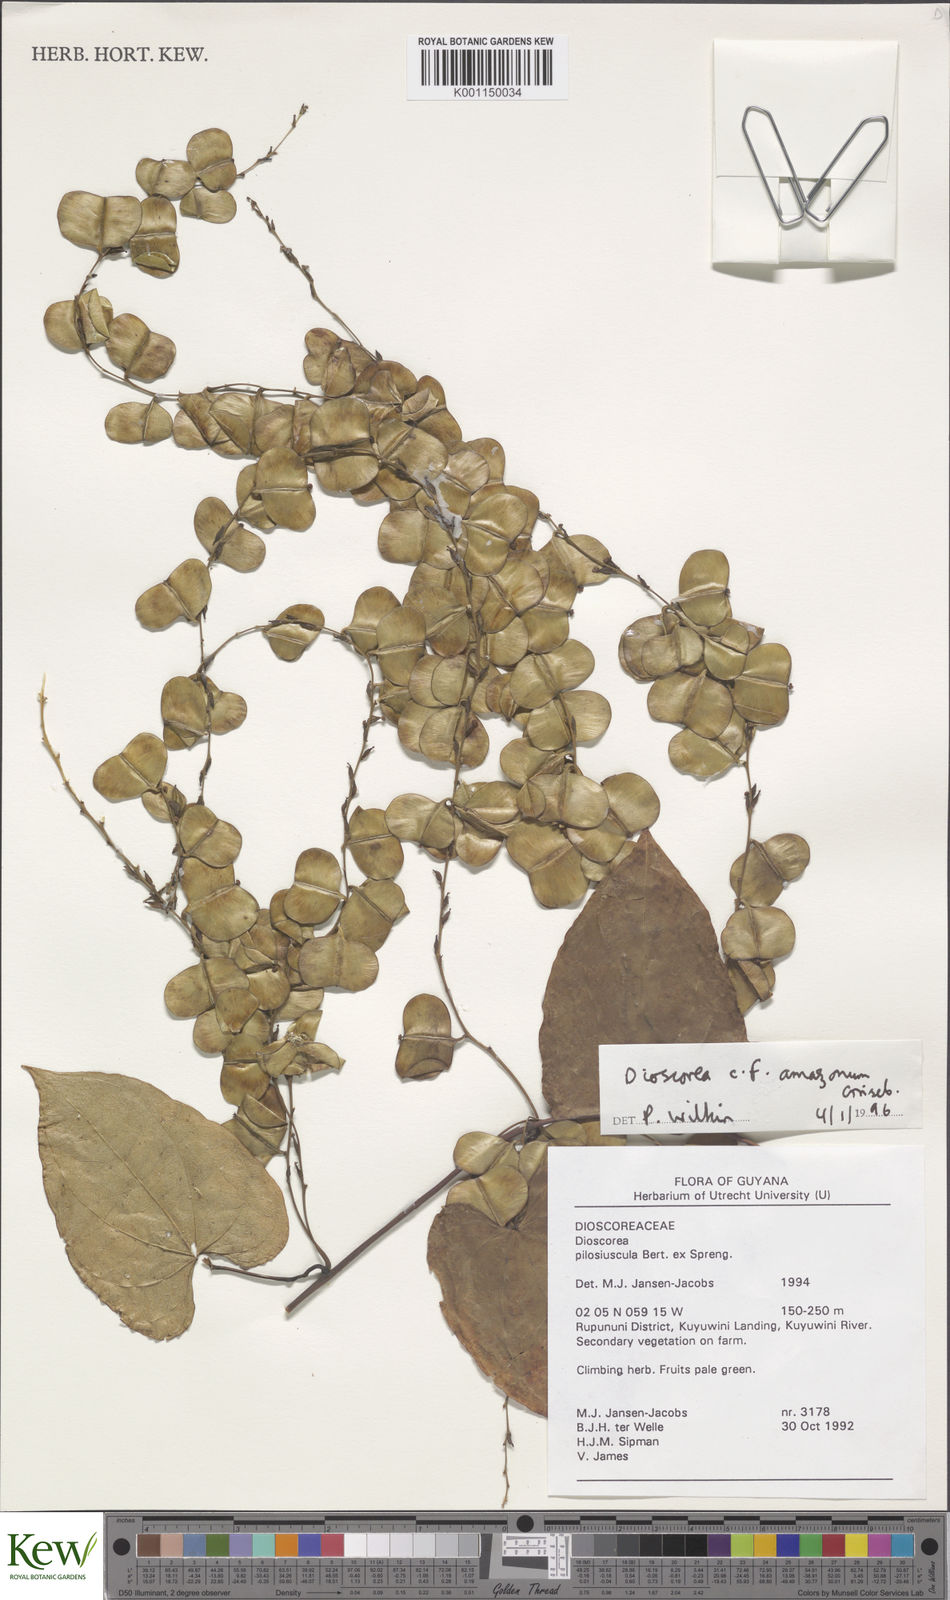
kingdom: Plantae
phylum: Tracheophyta
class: Liliopsida
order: Dioscoreales
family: Dioscoreaceae
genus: Dioscorea
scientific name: Dioscorea amazonum
